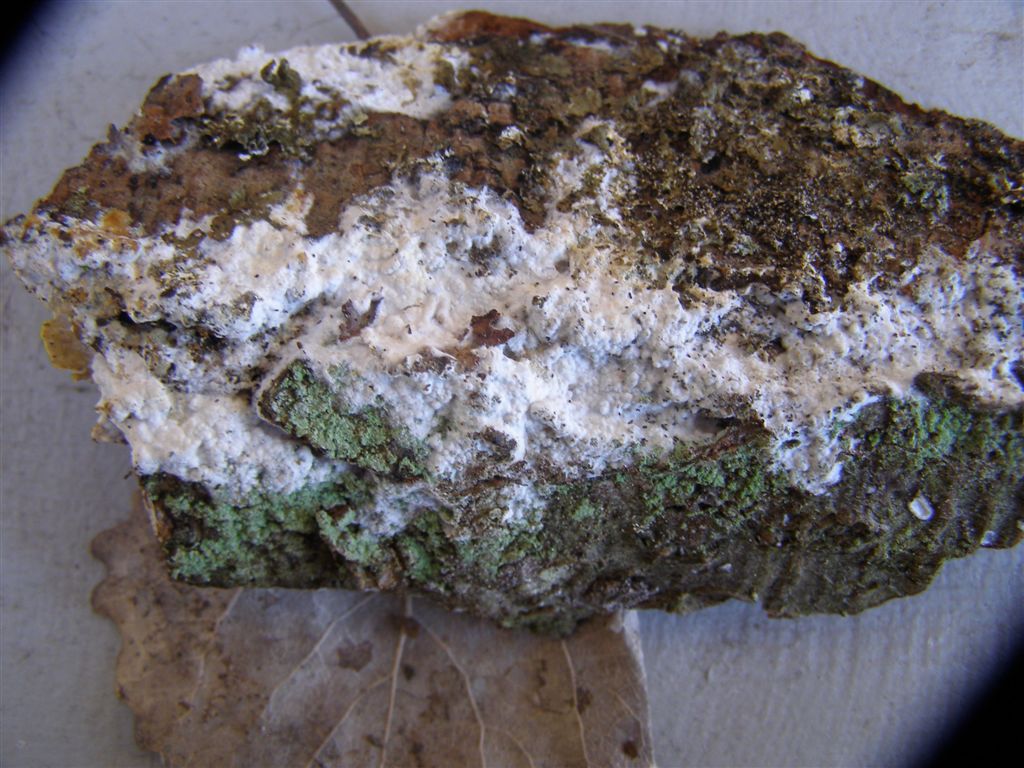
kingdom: Fungi
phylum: Basidiomycota
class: Agaricomycetes
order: Polyporales
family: Phanerochaetaceae
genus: Phanerochaete
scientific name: Phanerochaete velutina
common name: dunet randtråd
